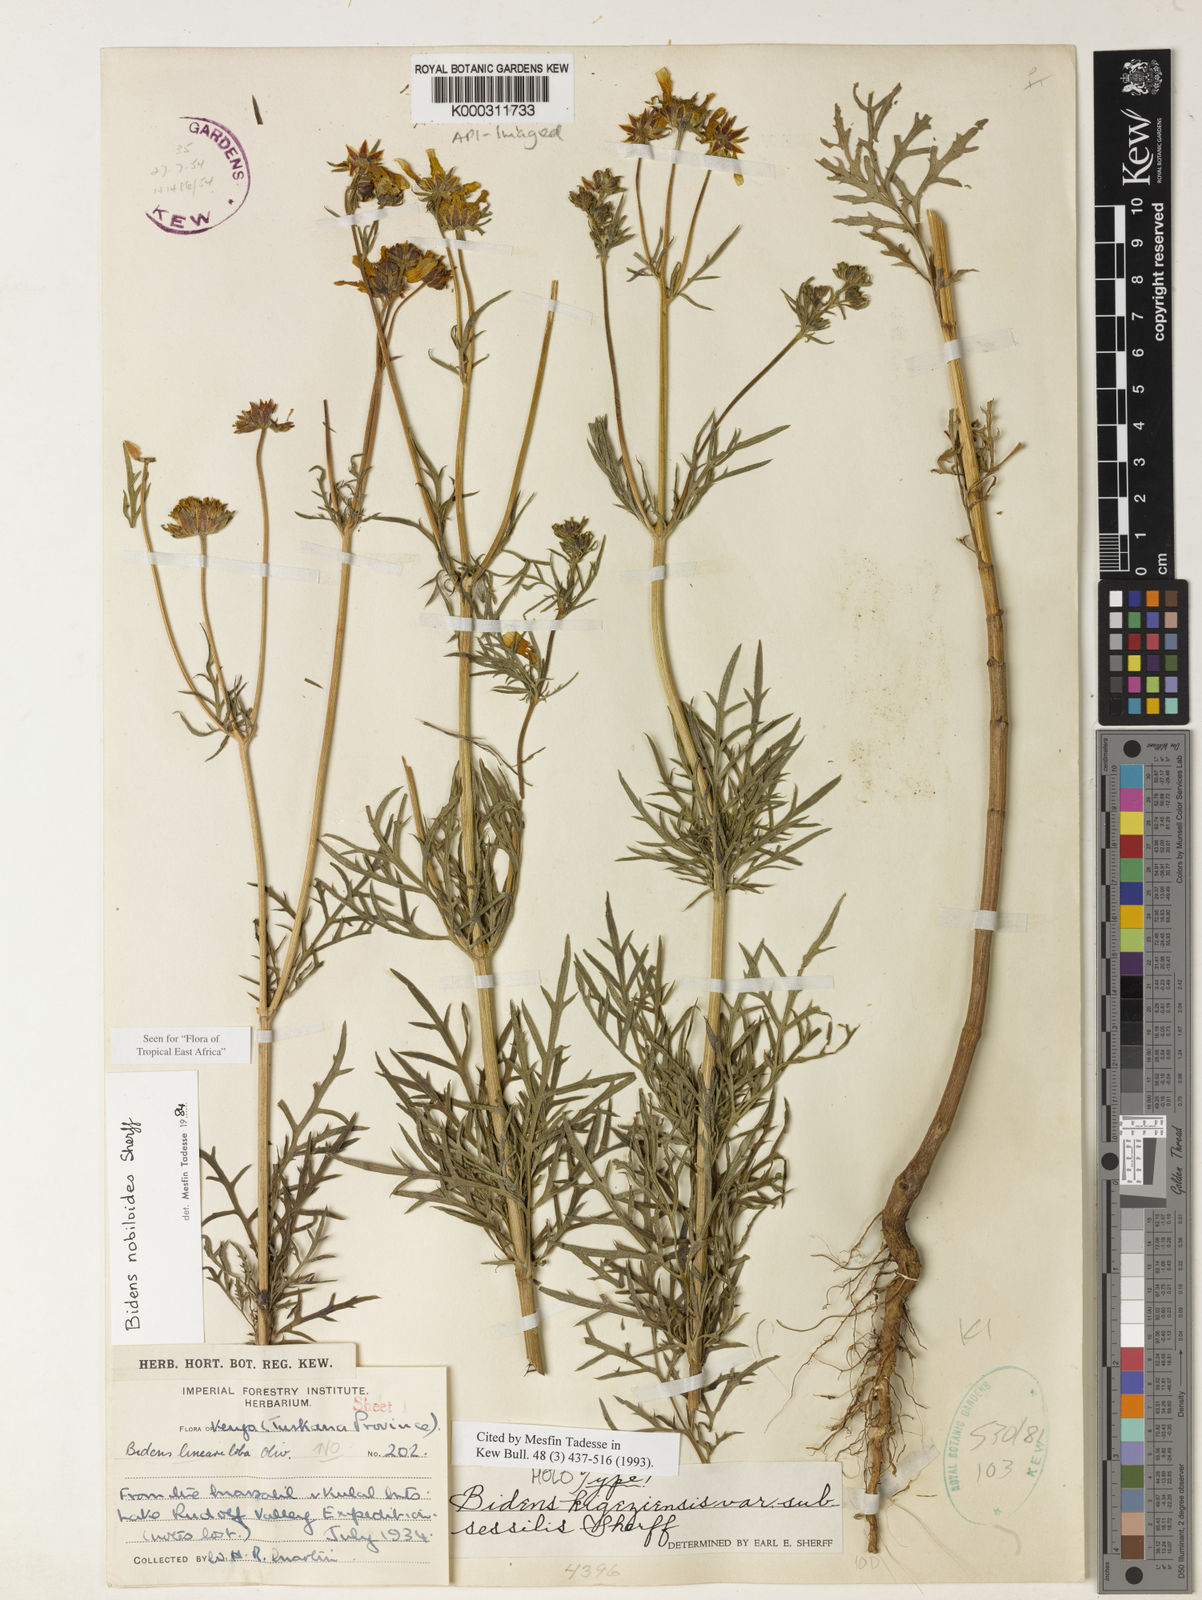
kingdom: Plantae
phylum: Tracheophyta
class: Magnoliopsida
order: Asterales
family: Asteraceae
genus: Bidens
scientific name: Bidens
